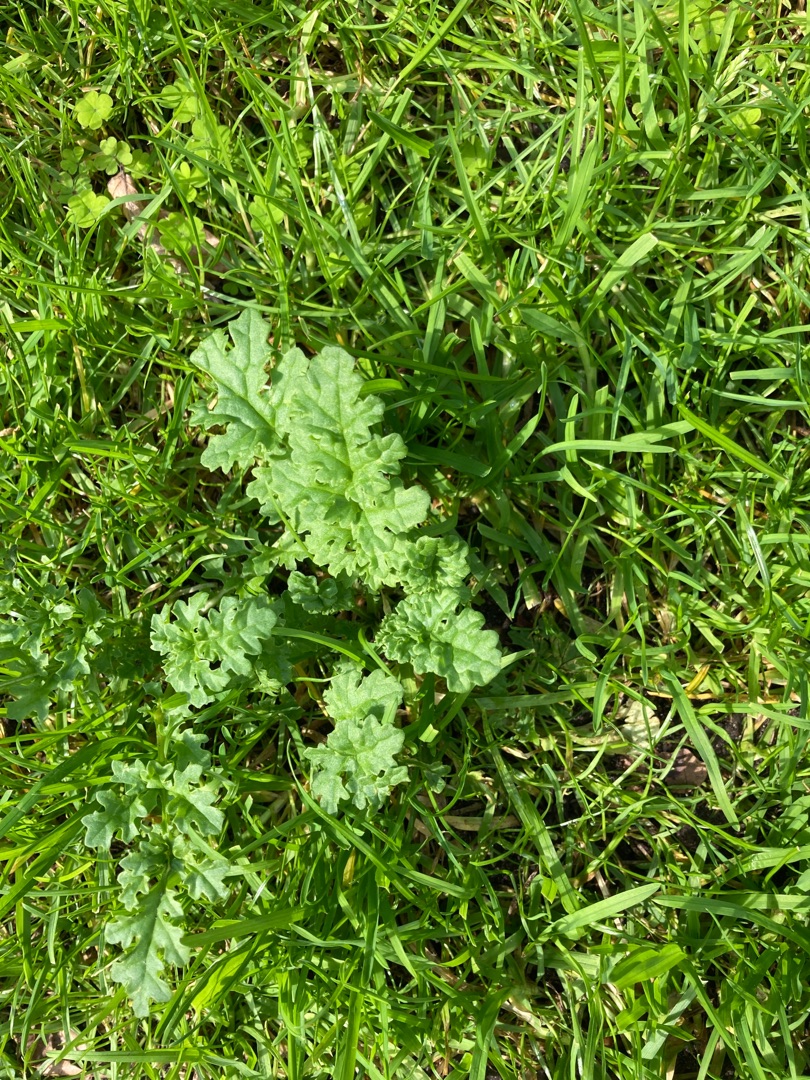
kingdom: Plantae
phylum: Tracheophyta
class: Magnoliopsida
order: Asterales
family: Asteraceae
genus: Jacobaea
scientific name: Jacobaea vulgaris
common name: Eng-brandbæger
